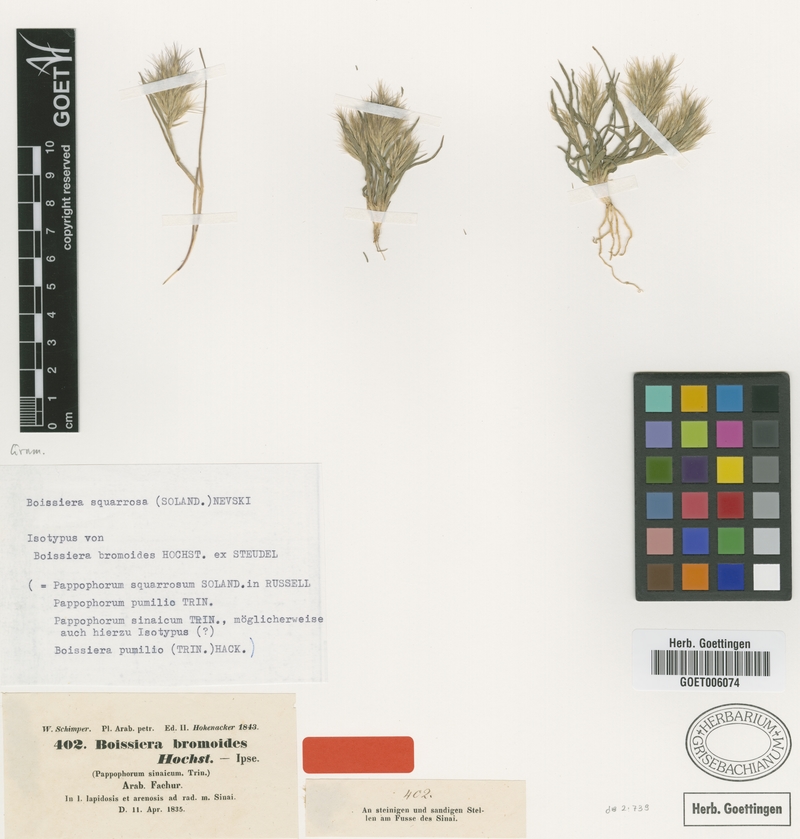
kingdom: Plantae
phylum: Tracheophyta
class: Liliopsida
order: Poales
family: Poaceae
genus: Bromus
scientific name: Bromus pumilio
